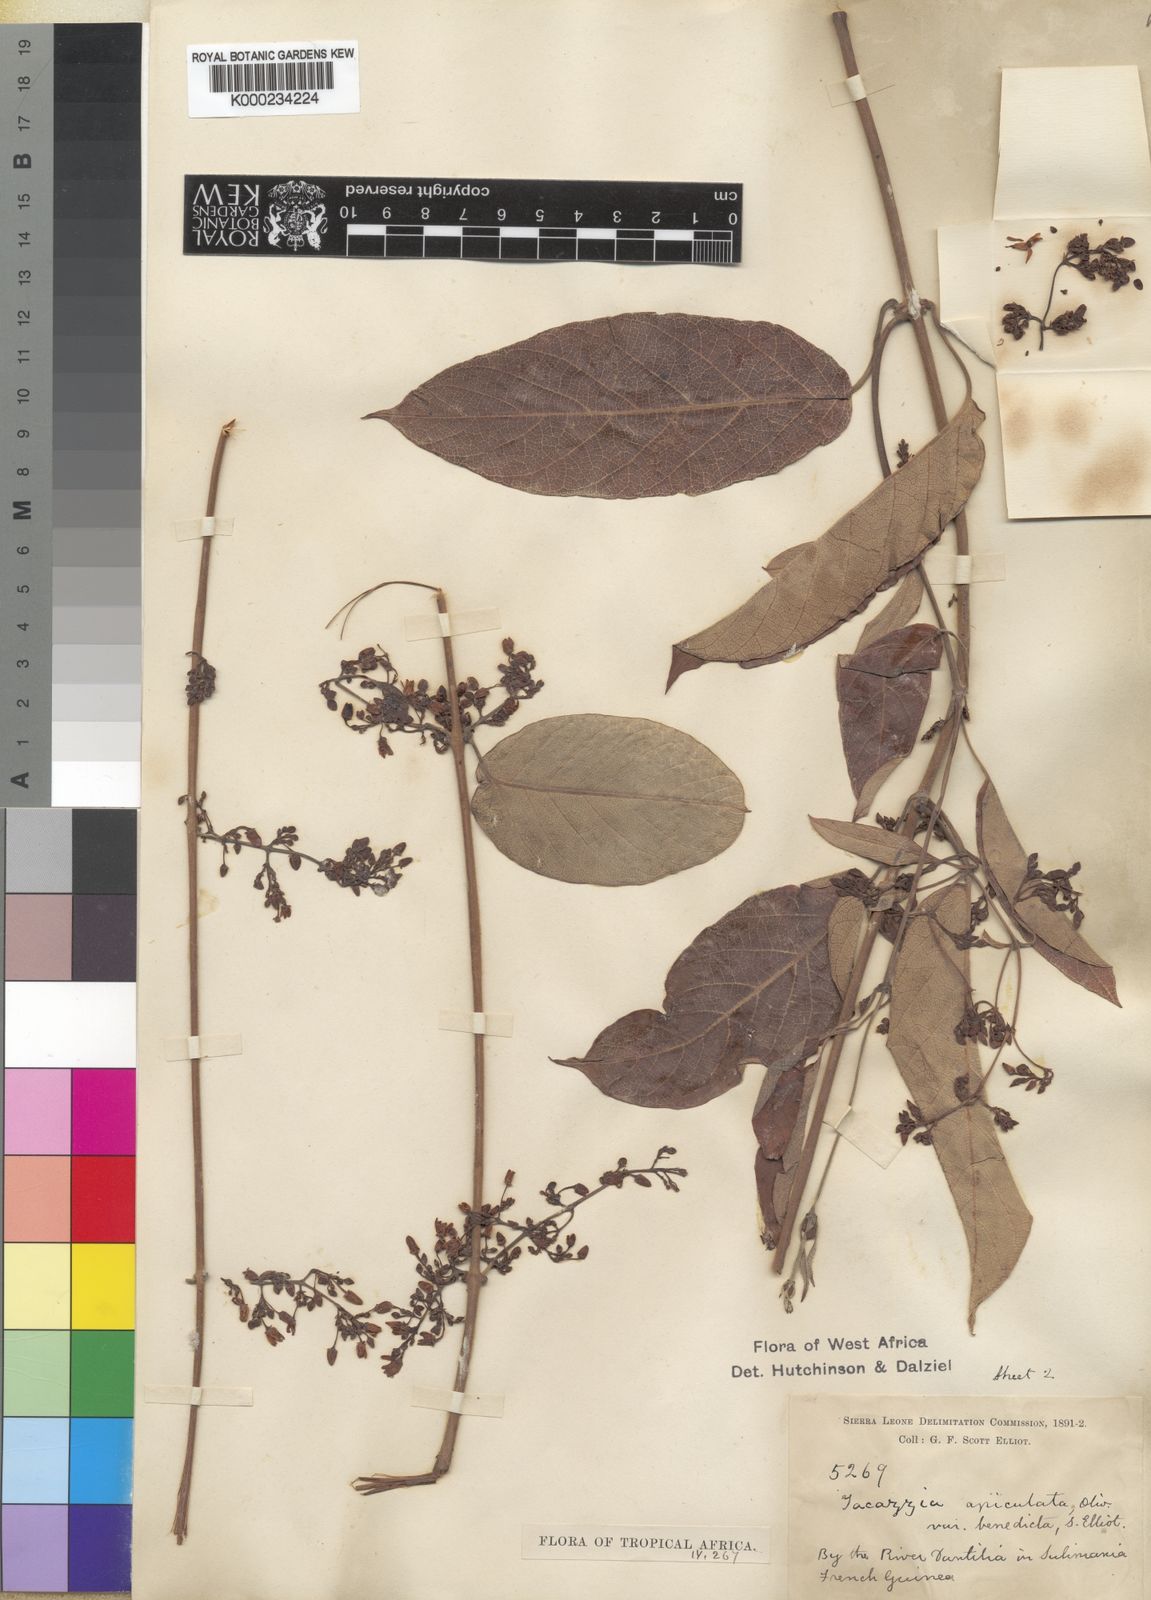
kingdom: Plantae
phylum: Tracheophyta
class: Magnoliopsida
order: Gentianales
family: Apocynaceae
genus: Tacazzea
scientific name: Tacazzea apiculata
